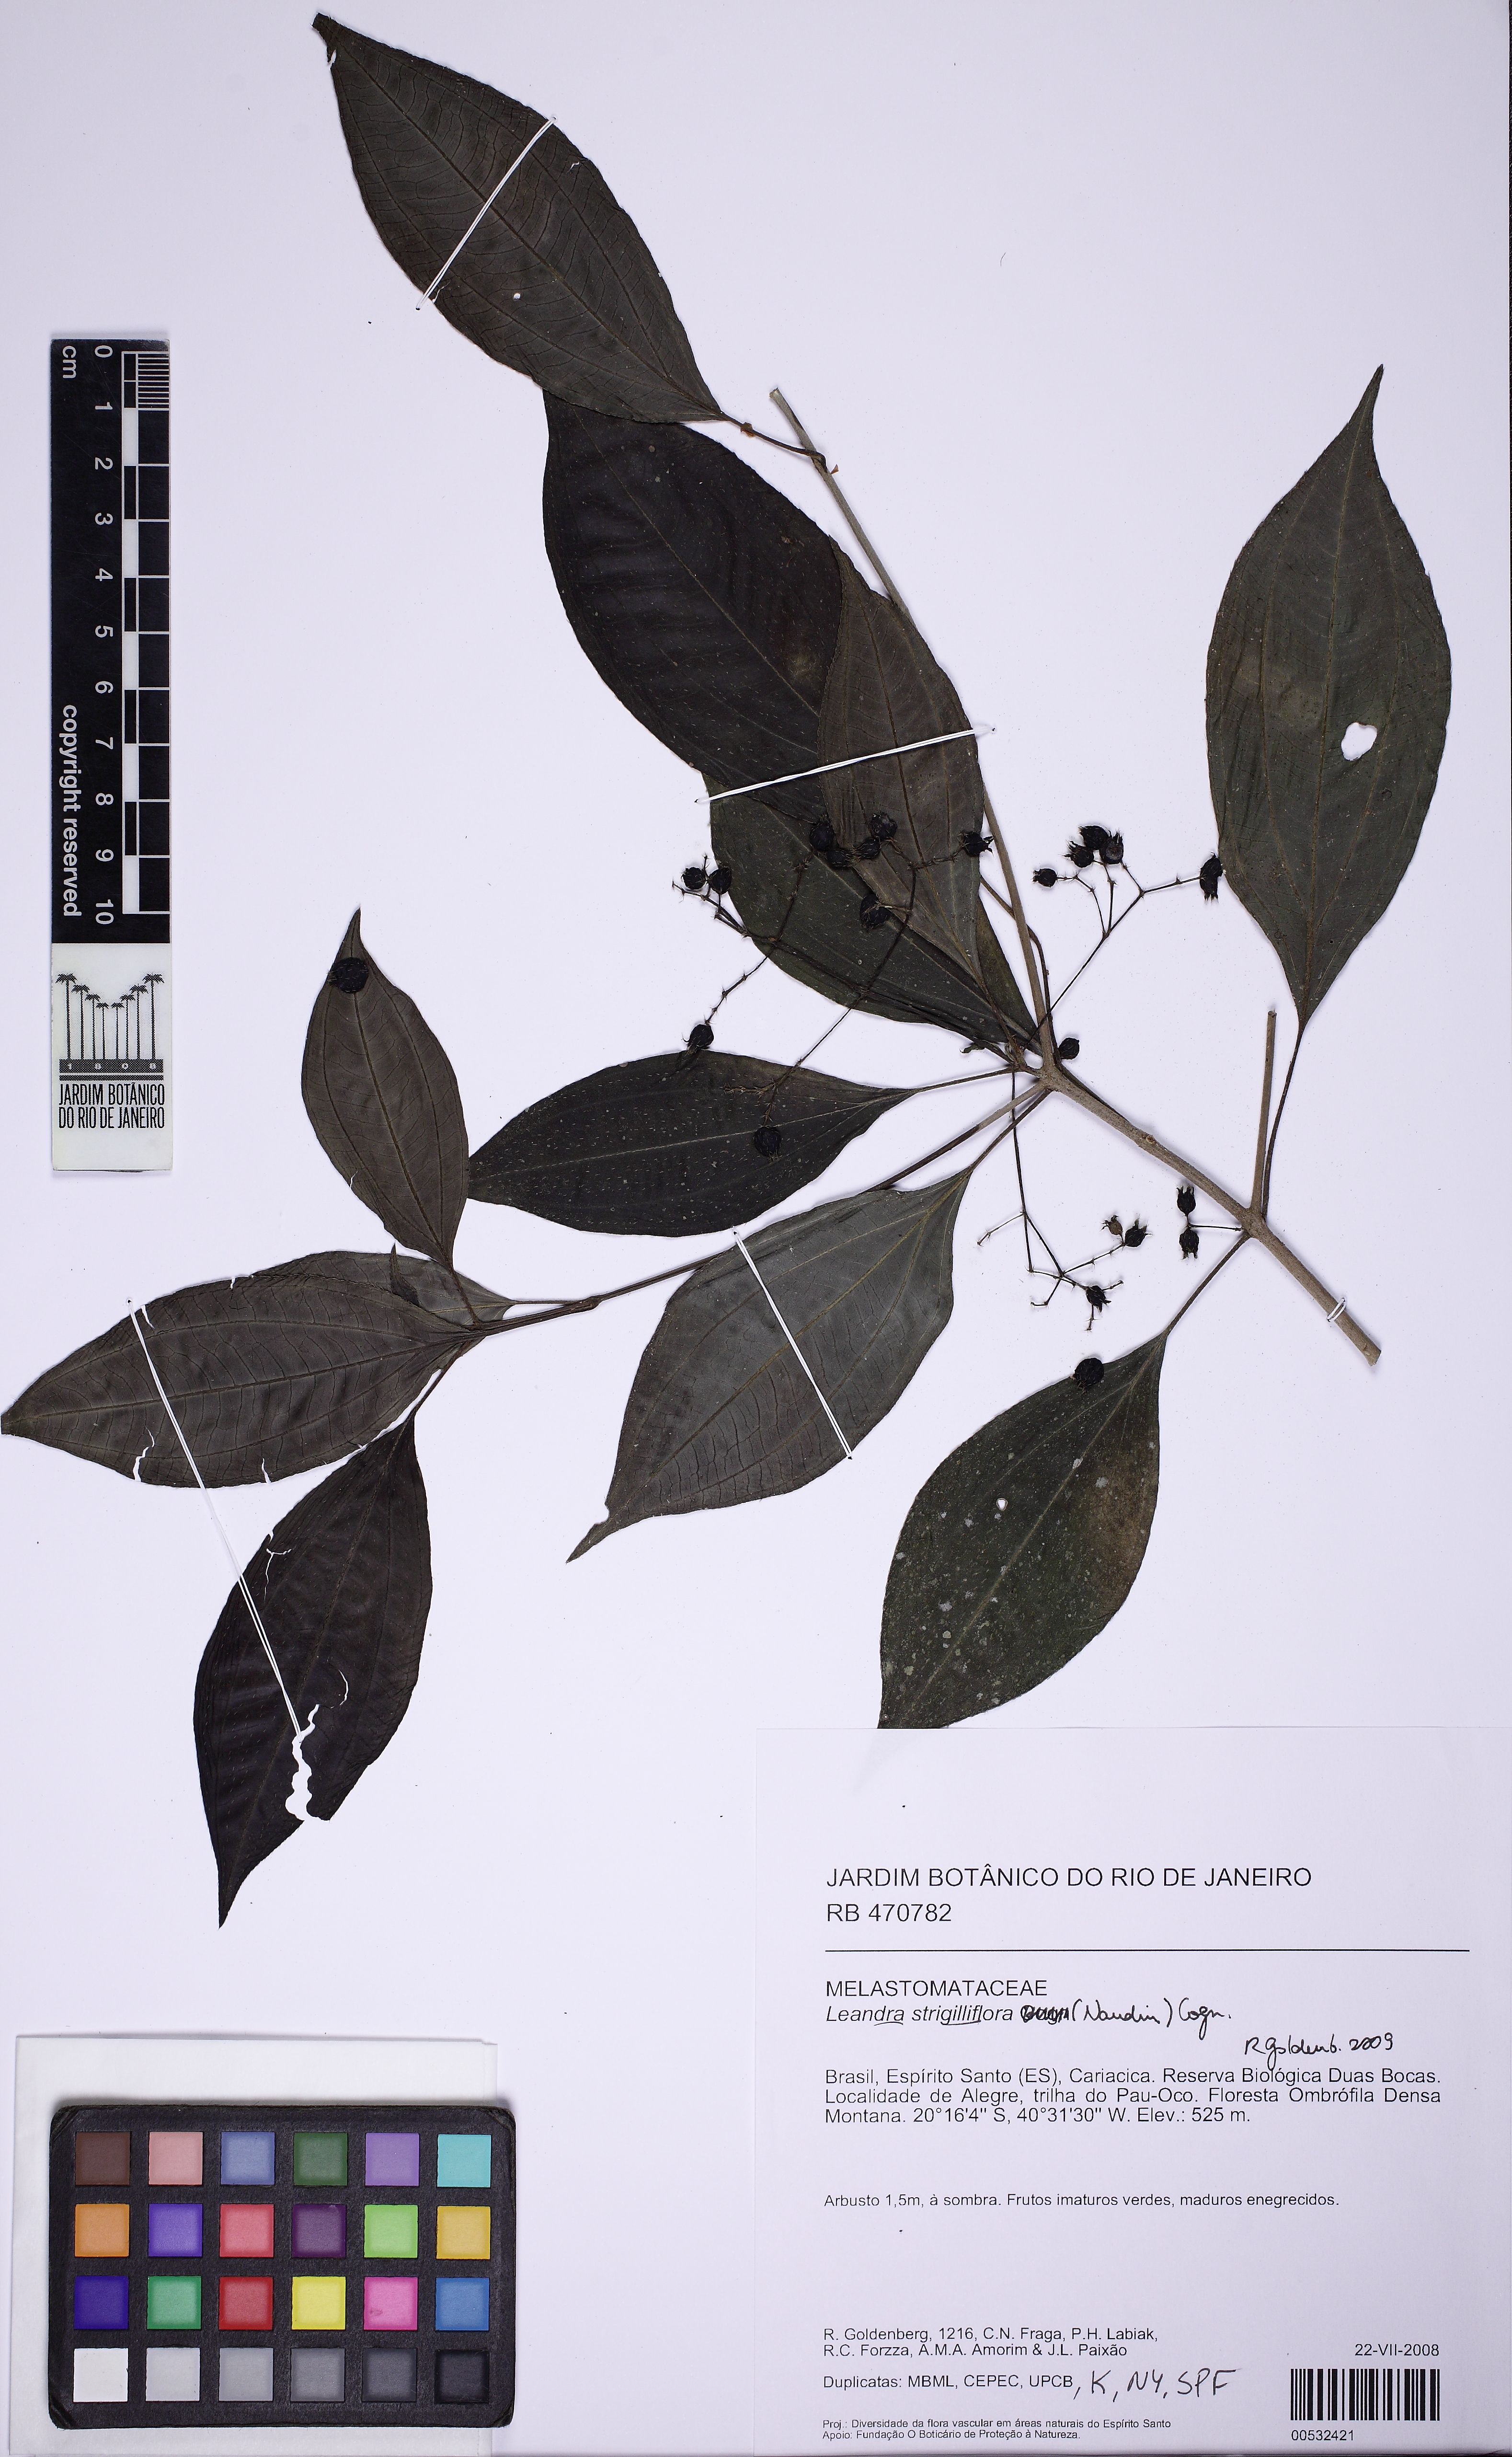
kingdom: Plantae
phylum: Tracheophyta
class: Magnoliopsida
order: Myrtales
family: Melastomataceae
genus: Miconia
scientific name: Miconia strigilliflora
